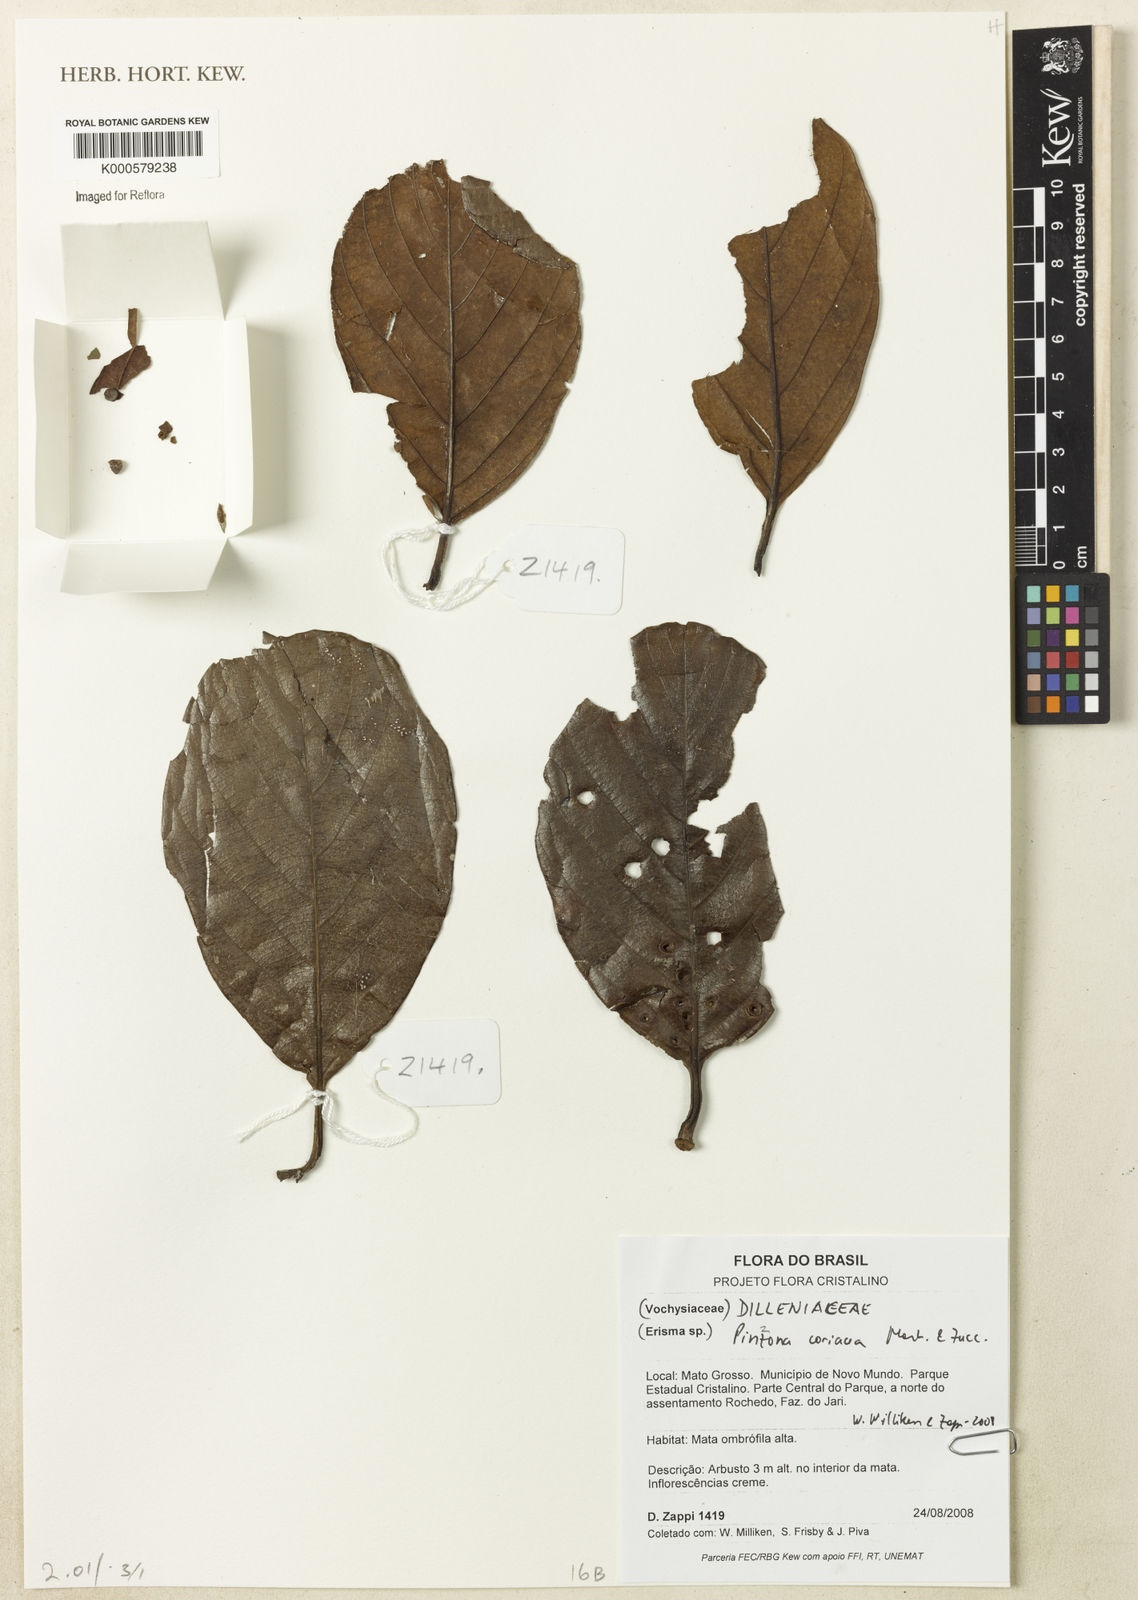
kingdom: Plantae
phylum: Tracheophyta
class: Magnoliopsida
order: Dilleniales
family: Dilleniaceae
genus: Pinzona
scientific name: Pinzona coriacea
